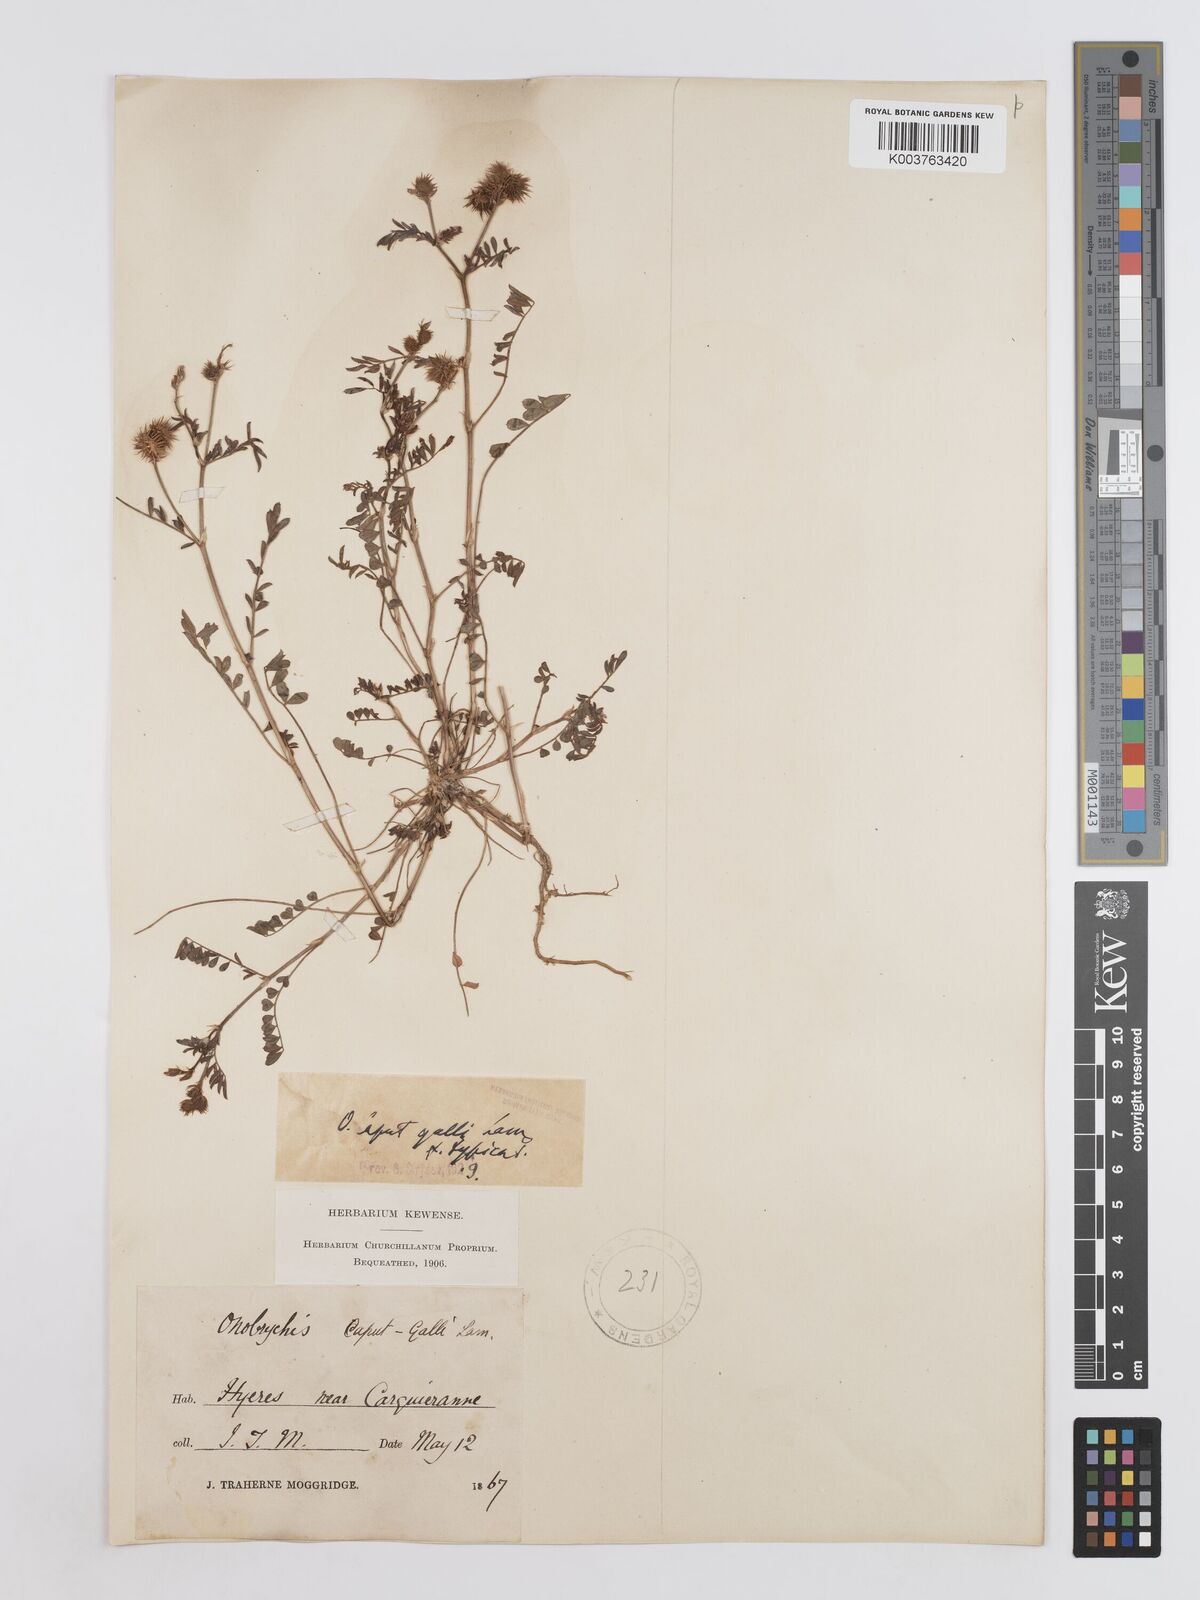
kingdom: Plantae
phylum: Tracheophyta
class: Magnoliopsida
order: Fabales
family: Fabaceae
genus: Onobrychis
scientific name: Onobrychis caput-galli
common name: Cockscomb sainfoin
